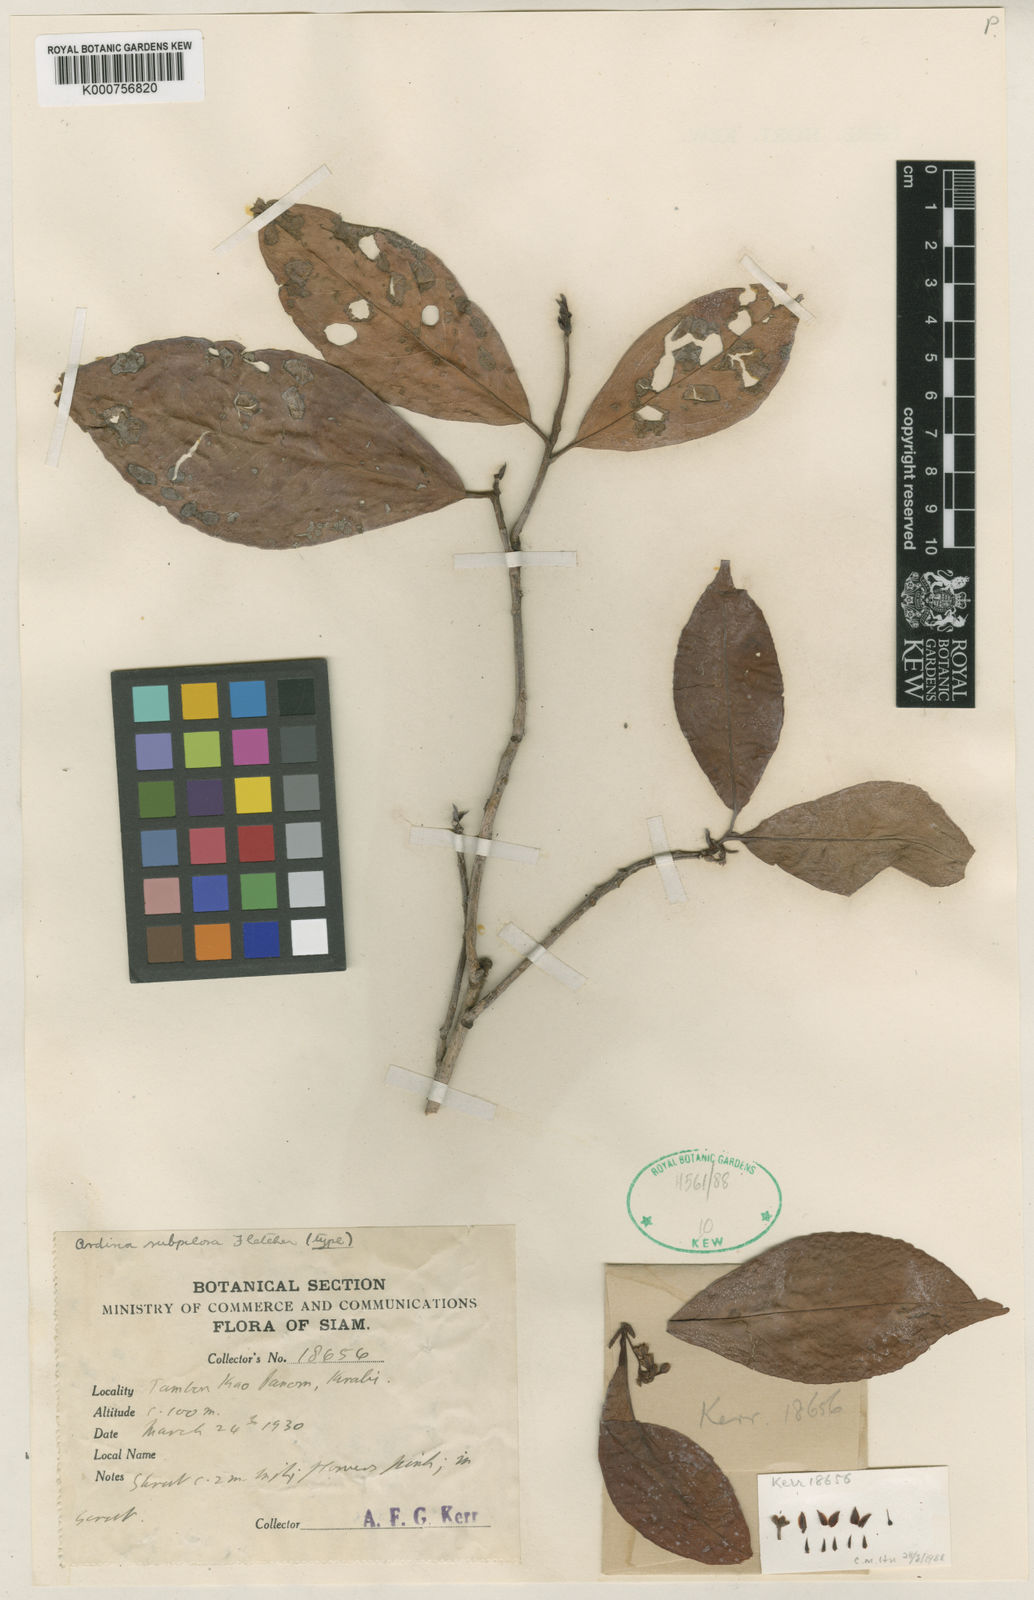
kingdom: Plantae
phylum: Tracheophyta
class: Magnoliopsida
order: Ericales
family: Primulaceae
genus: Ardisia
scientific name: Ardisia subpilosa
